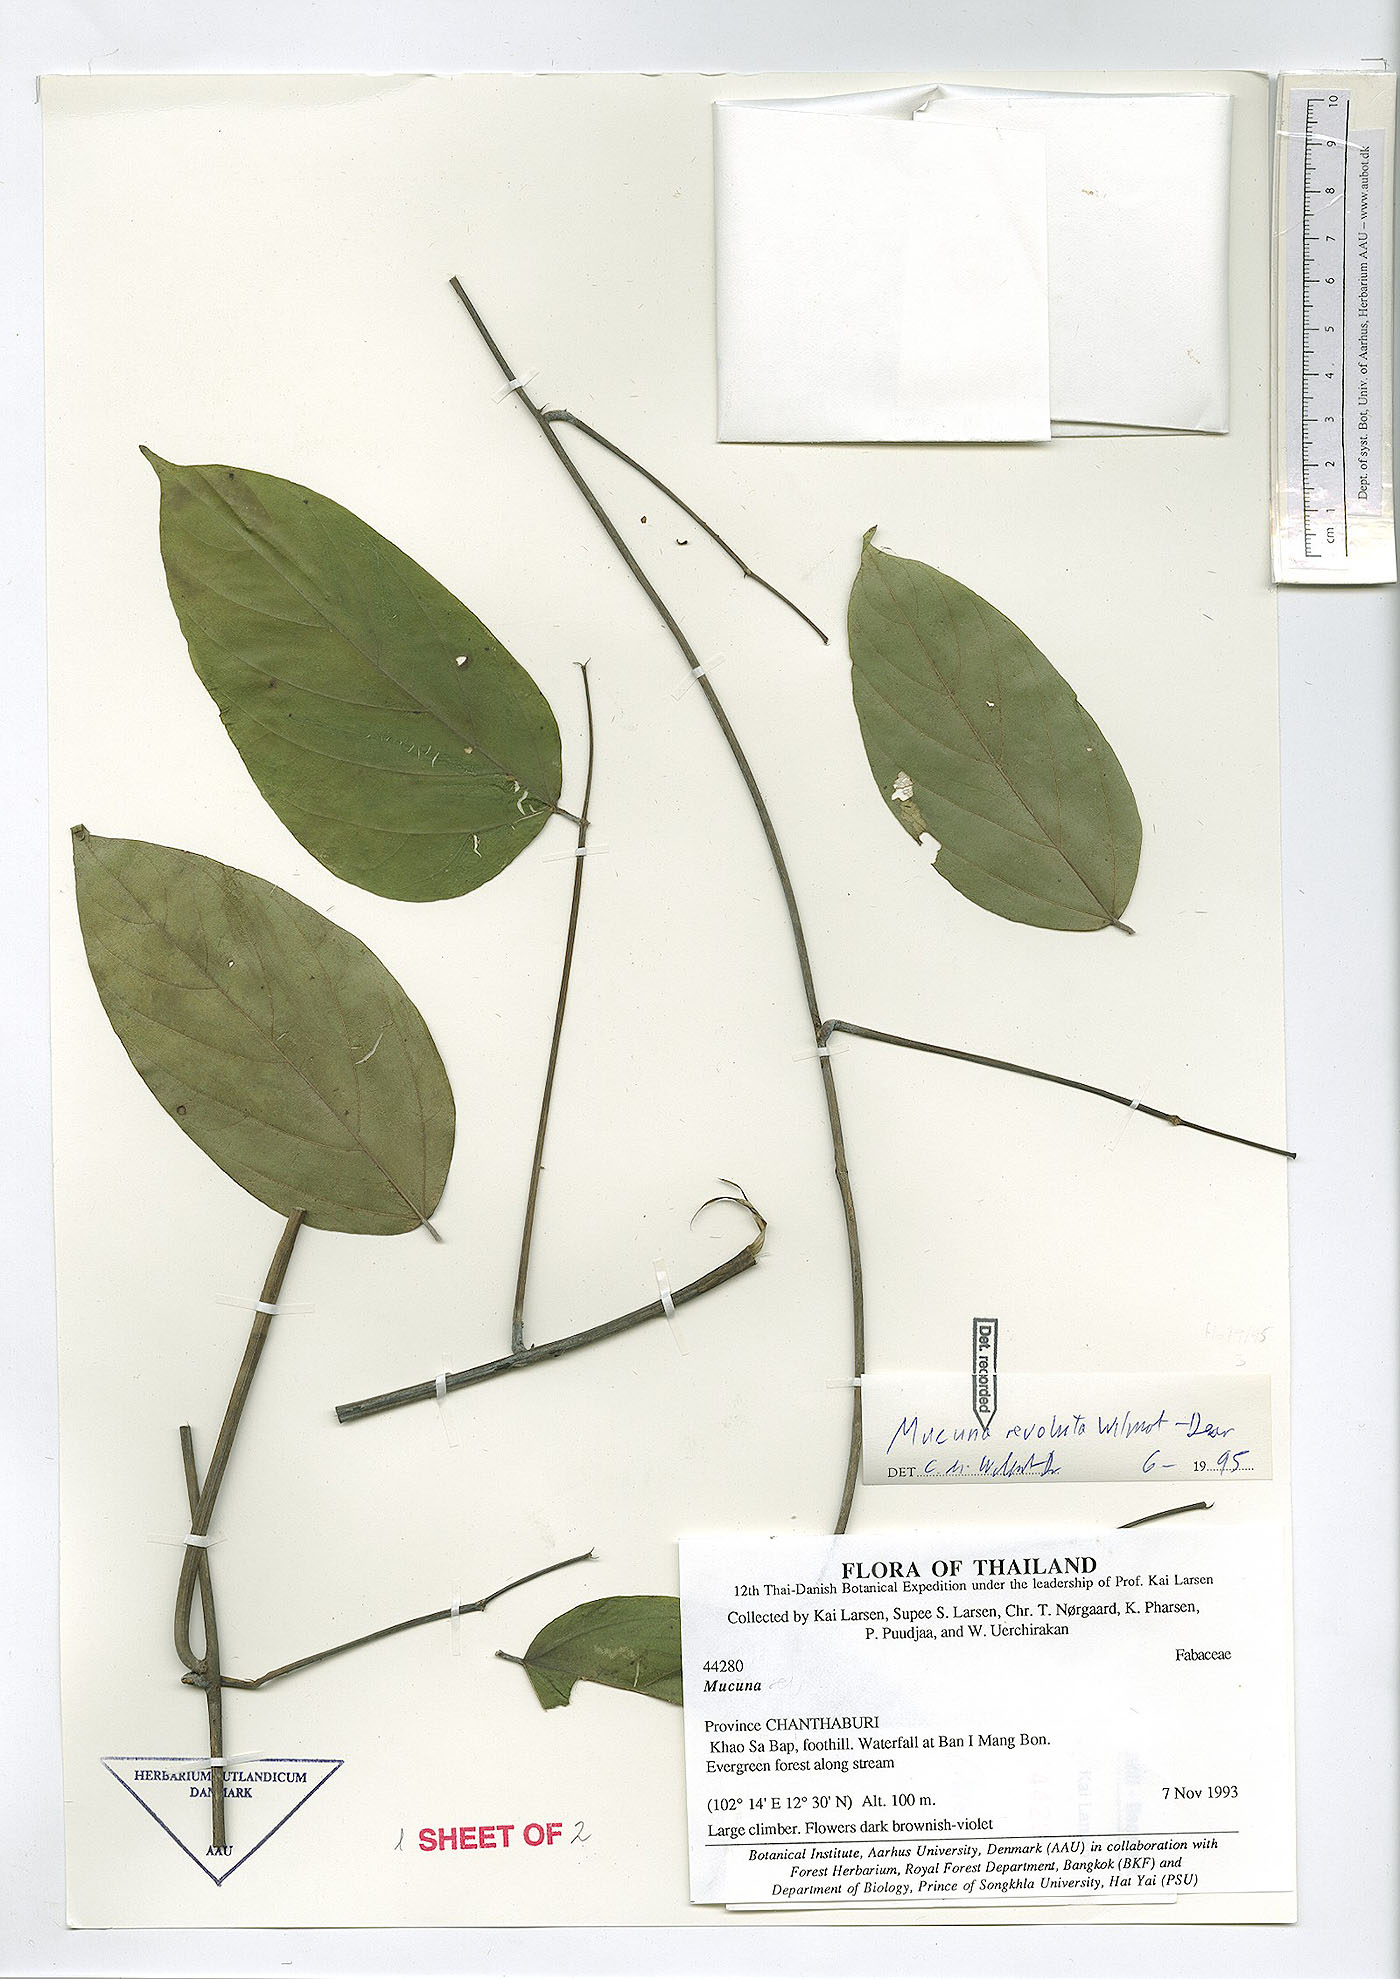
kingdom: Plantae
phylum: Tracheophyta
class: Magnoliopsida
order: Fabales
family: Fabaceae
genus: Mucuna
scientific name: Mucuna revoluta
